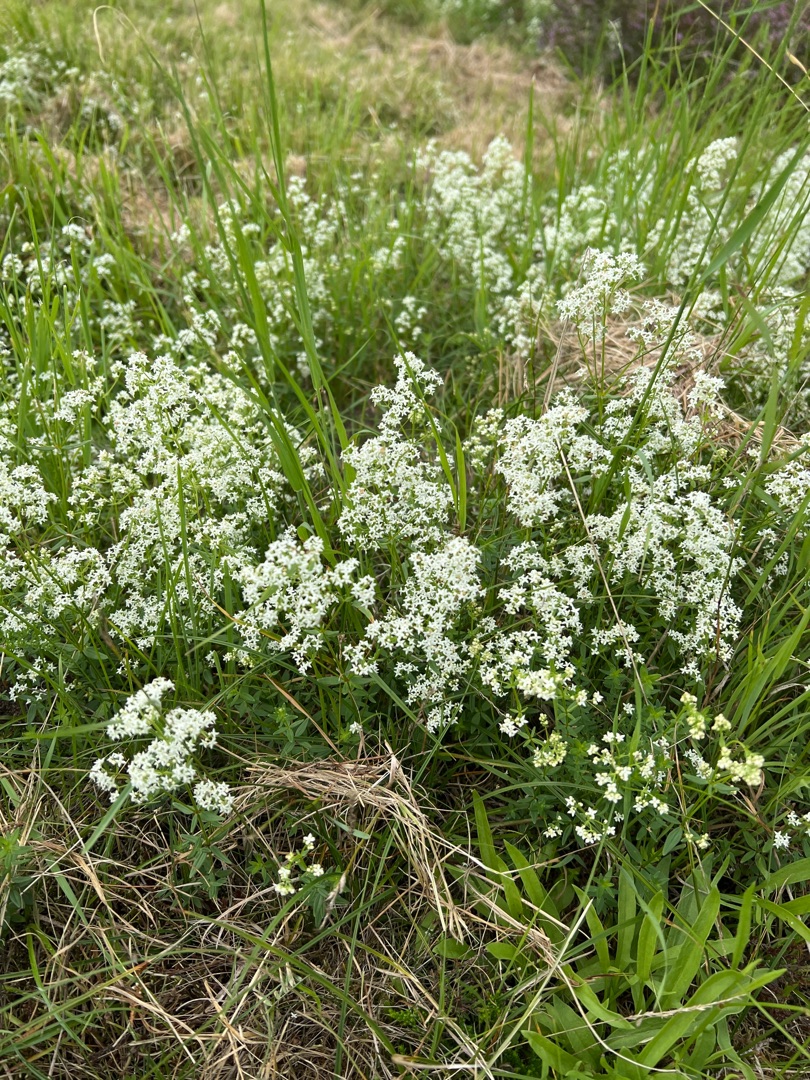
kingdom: Plantae
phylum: Tracheophyta
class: Magnoliopsida
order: Gentianales
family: Rubiaceae
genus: Galium
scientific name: Galium boreale
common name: Trenervet snerre
